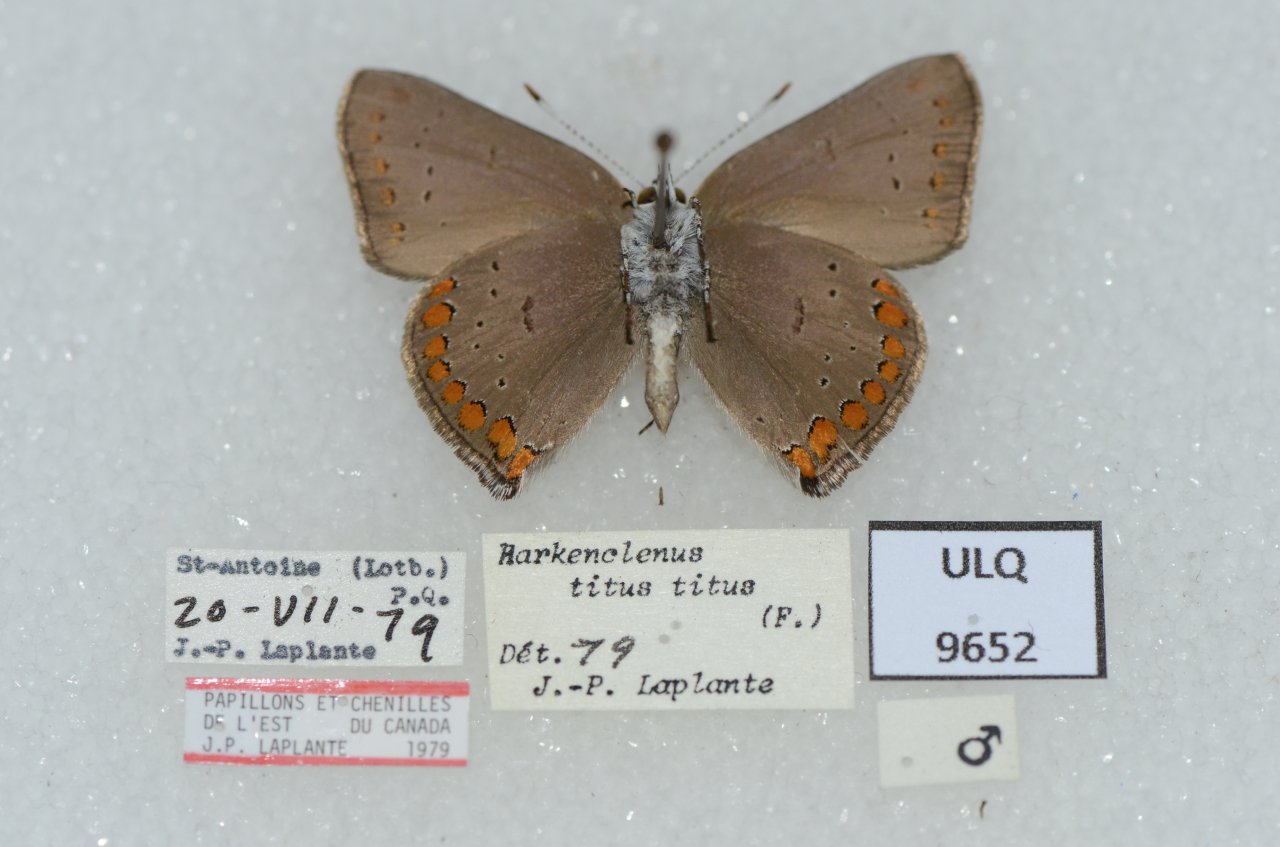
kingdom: Animalia
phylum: Arthropoda
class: Insecta
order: Lepidoptera
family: Lycaenidae
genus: Harkenclenus
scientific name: Harkenclenus titus
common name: Coral Hairstreak
